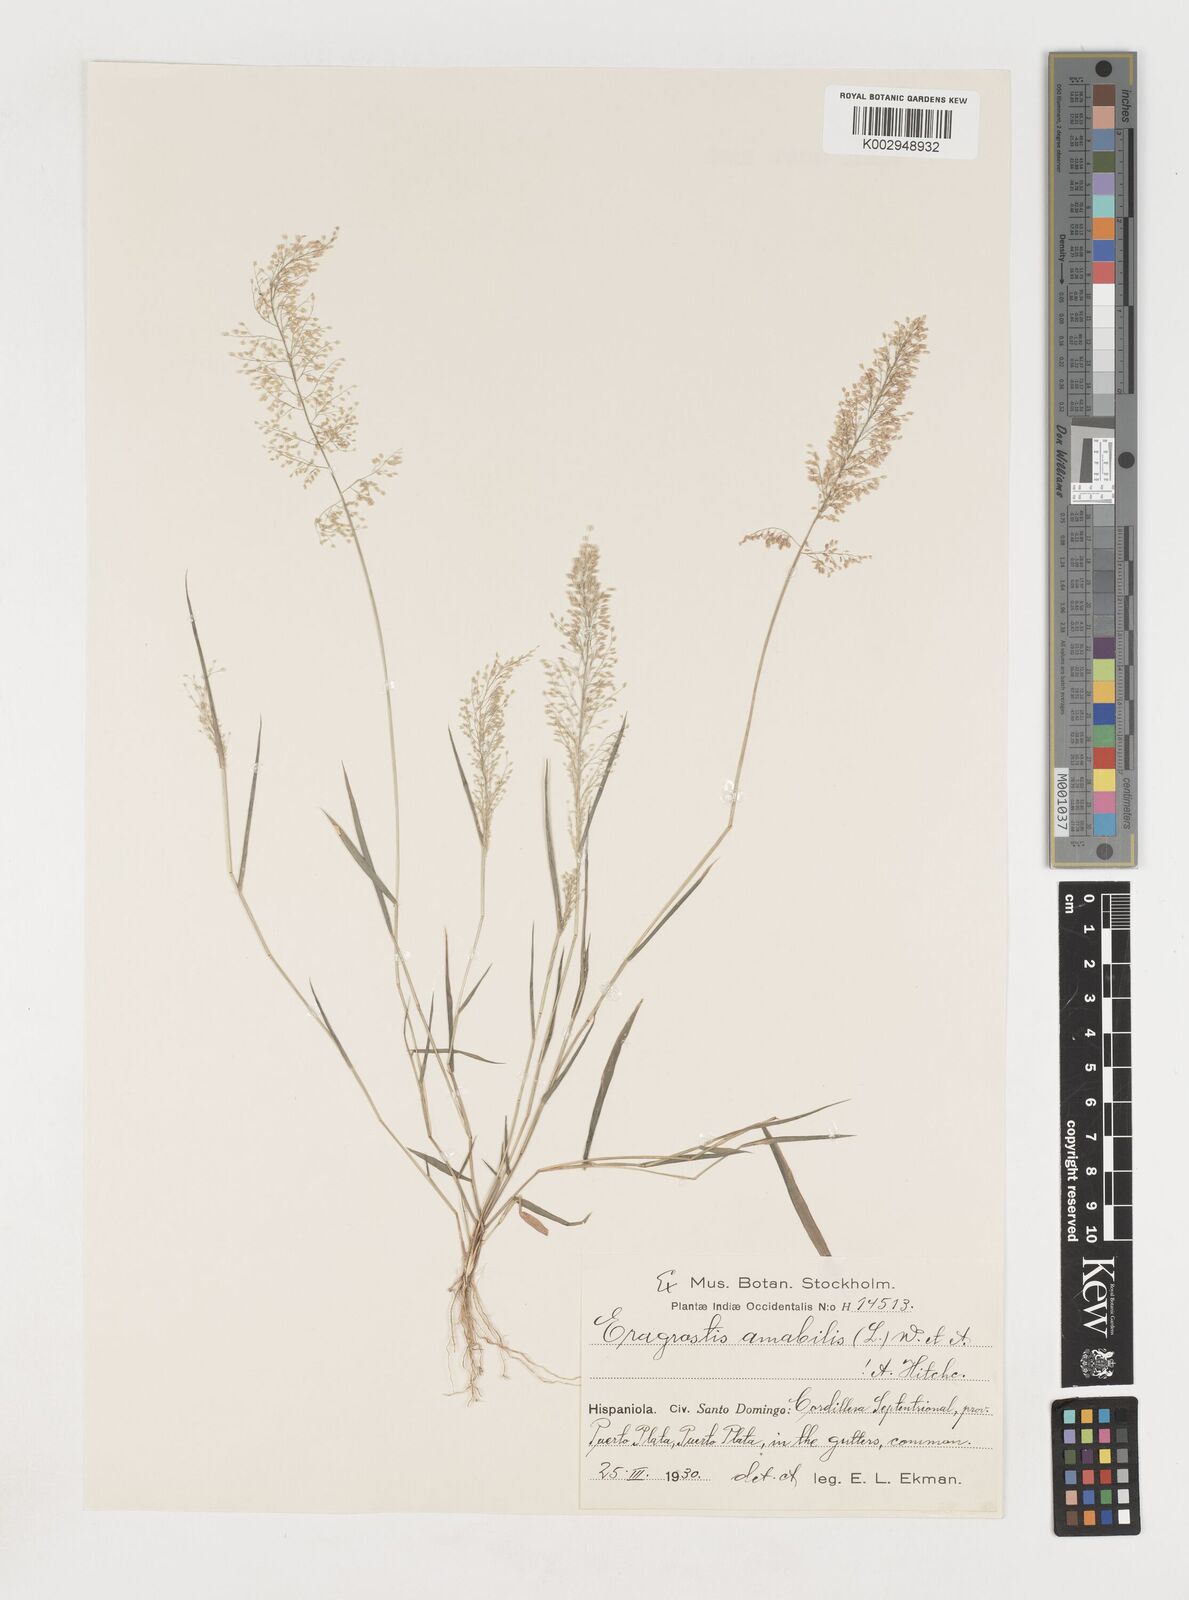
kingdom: Plantae
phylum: Tracheophyta
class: Liliopsida
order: Poales
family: Poaceae
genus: Eragrostis
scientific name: Eragrostis
